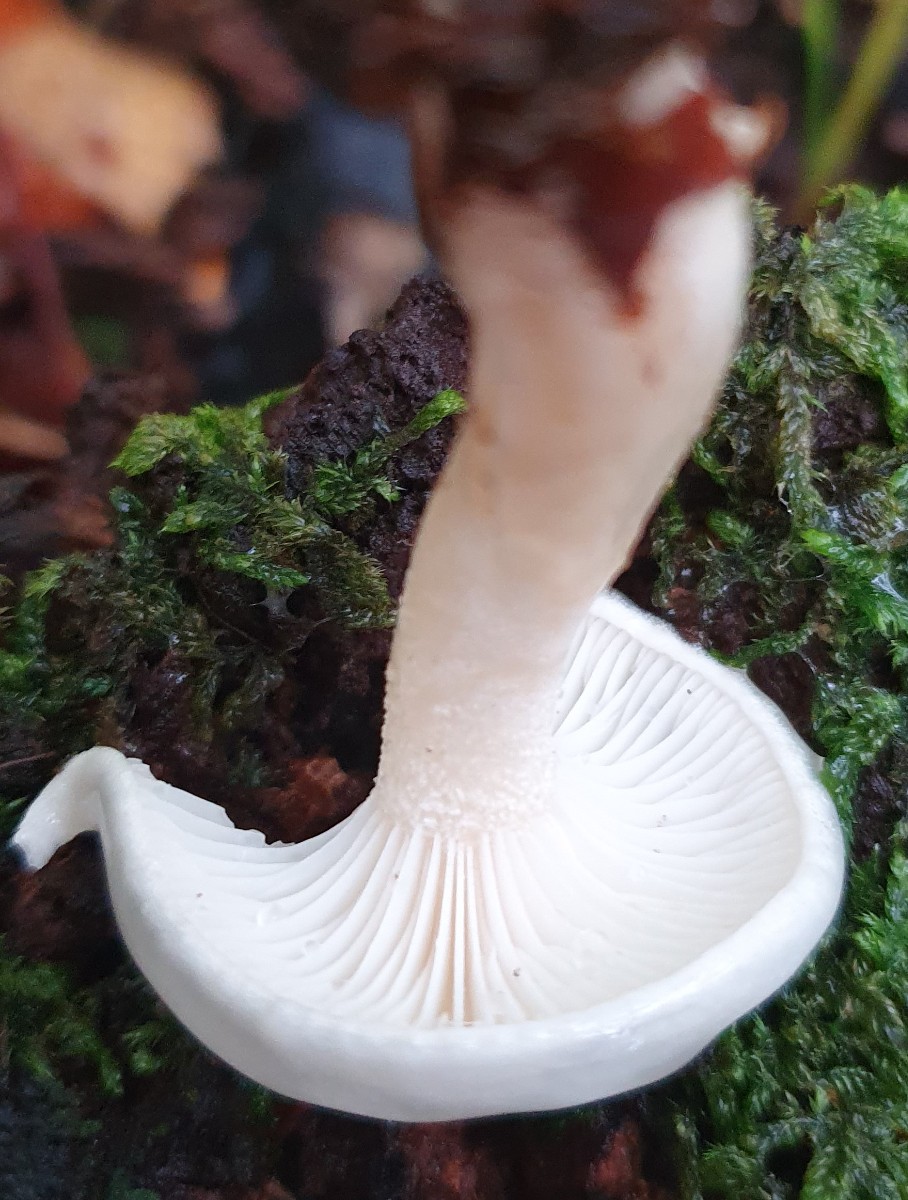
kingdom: Fungi
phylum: Basidiomycota
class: Agaricomycetes
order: Agaricales
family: Hygrophoraceae
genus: Hygrophorus
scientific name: Hygrophorus eburneus
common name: elfenbens-sneglehat
